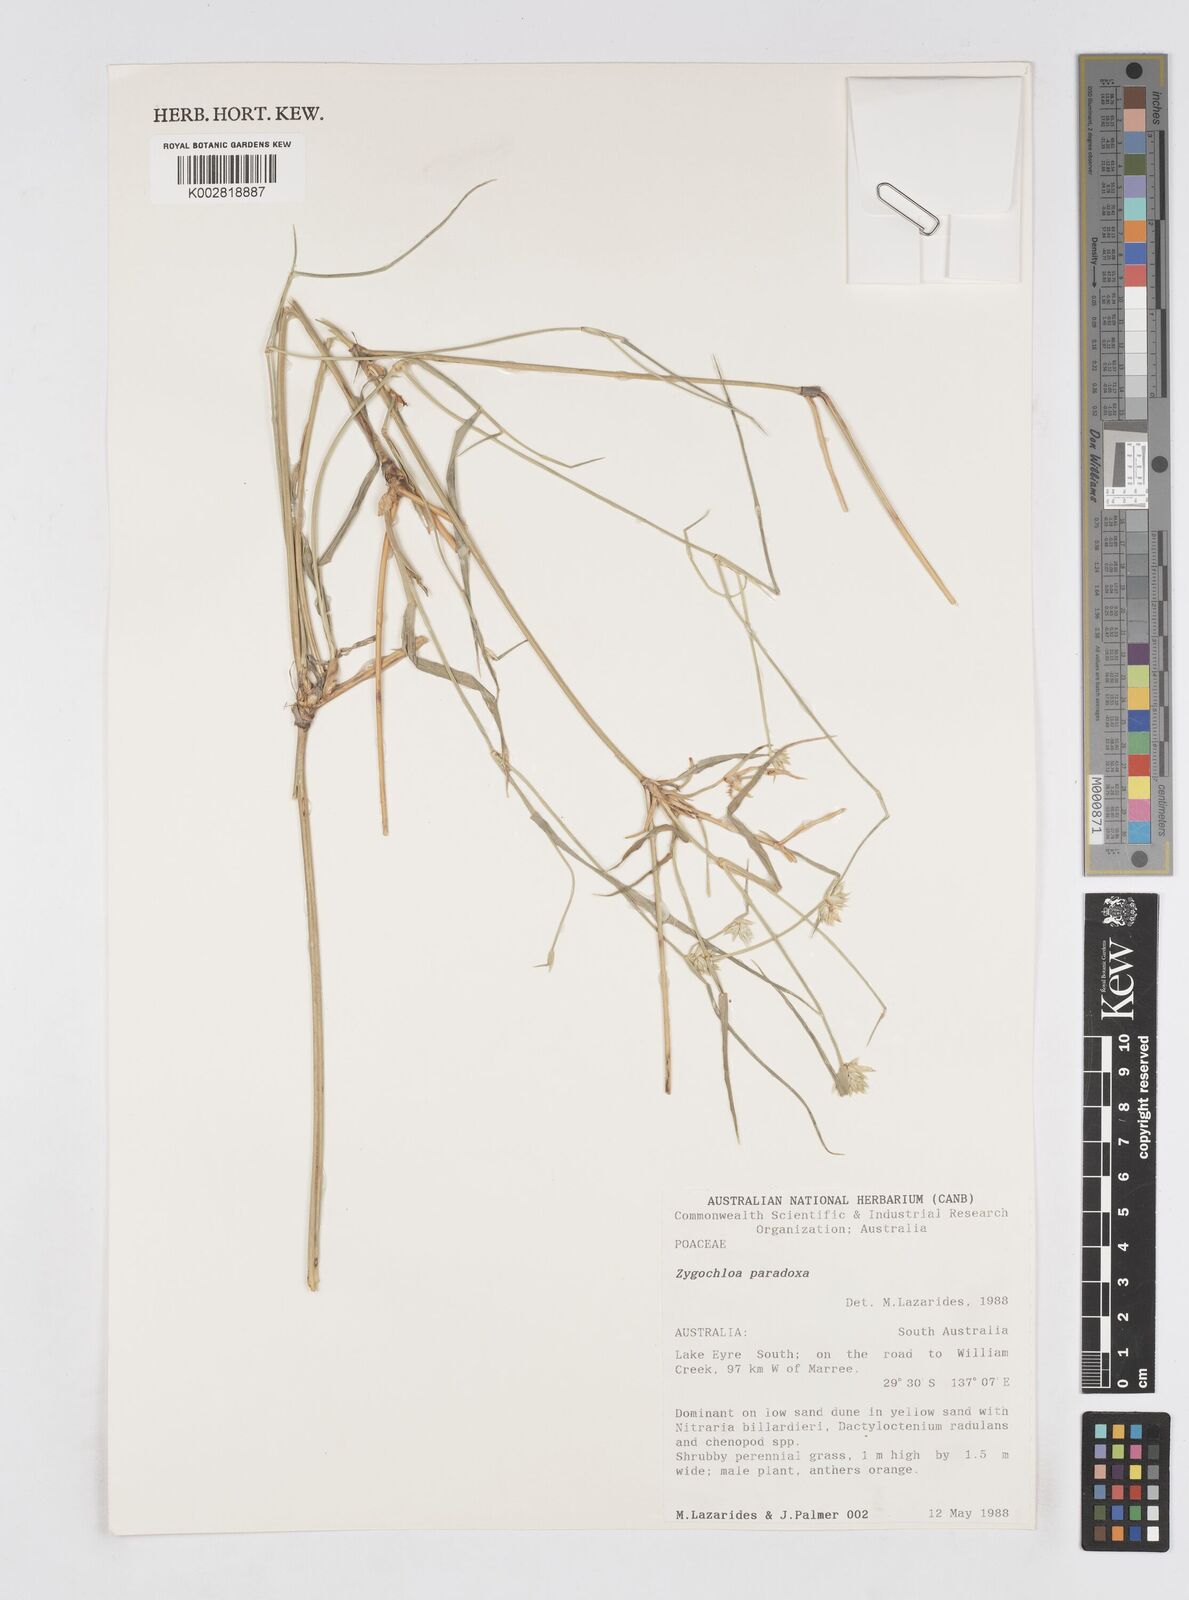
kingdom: Plantae
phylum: Tracheophyta
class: Liliopsida
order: Poales
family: Poaceae
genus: Zygochloa
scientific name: Zygochloa paradoxa
